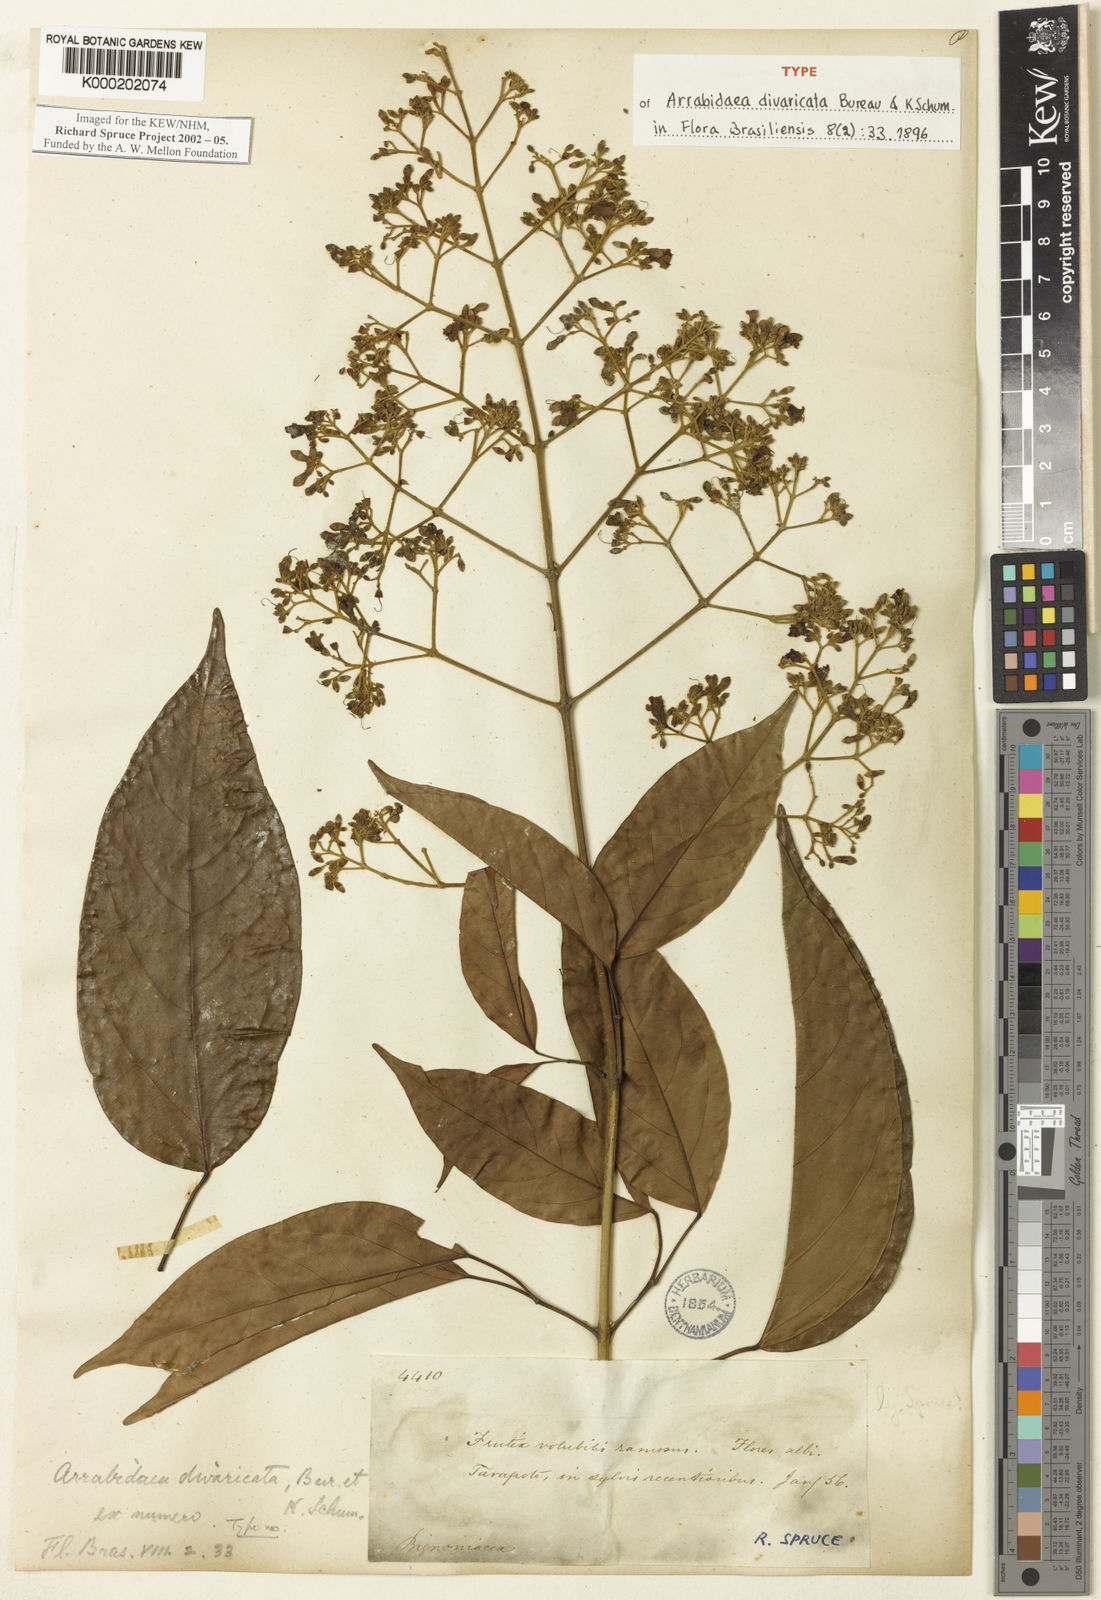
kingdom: Plantae
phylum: Tracheophyta
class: Magnoliopsida
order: Lamiales
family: Bignoniaceae
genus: Fridericia
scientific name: Fridericia florida
